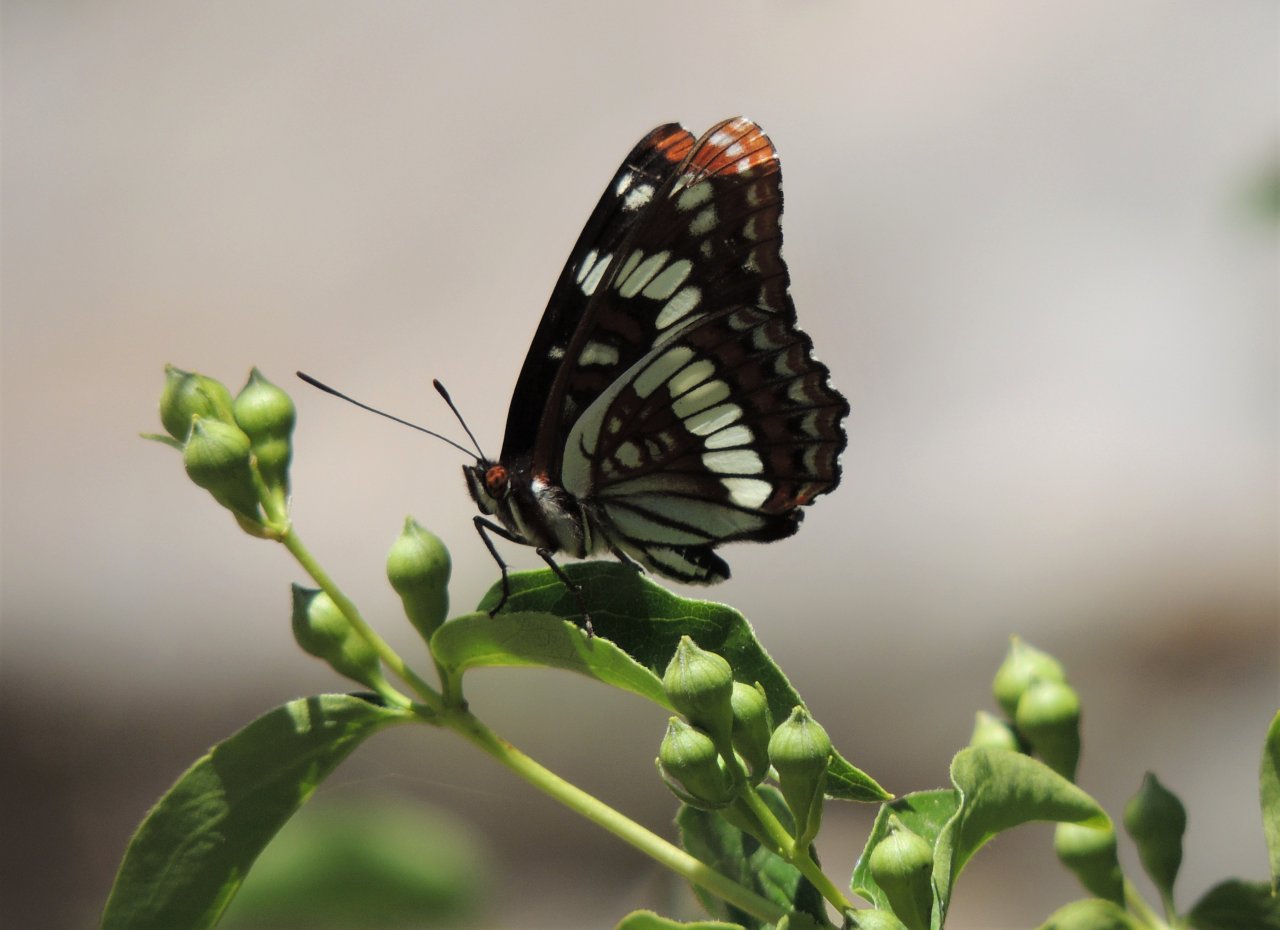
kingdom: Animalia
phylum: Arthropoda
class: Insecta
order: Lepidoptera
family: Nymphalidae
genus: Limenitis
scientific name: Limenitis lorquini
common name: Lorquin's Admiral
